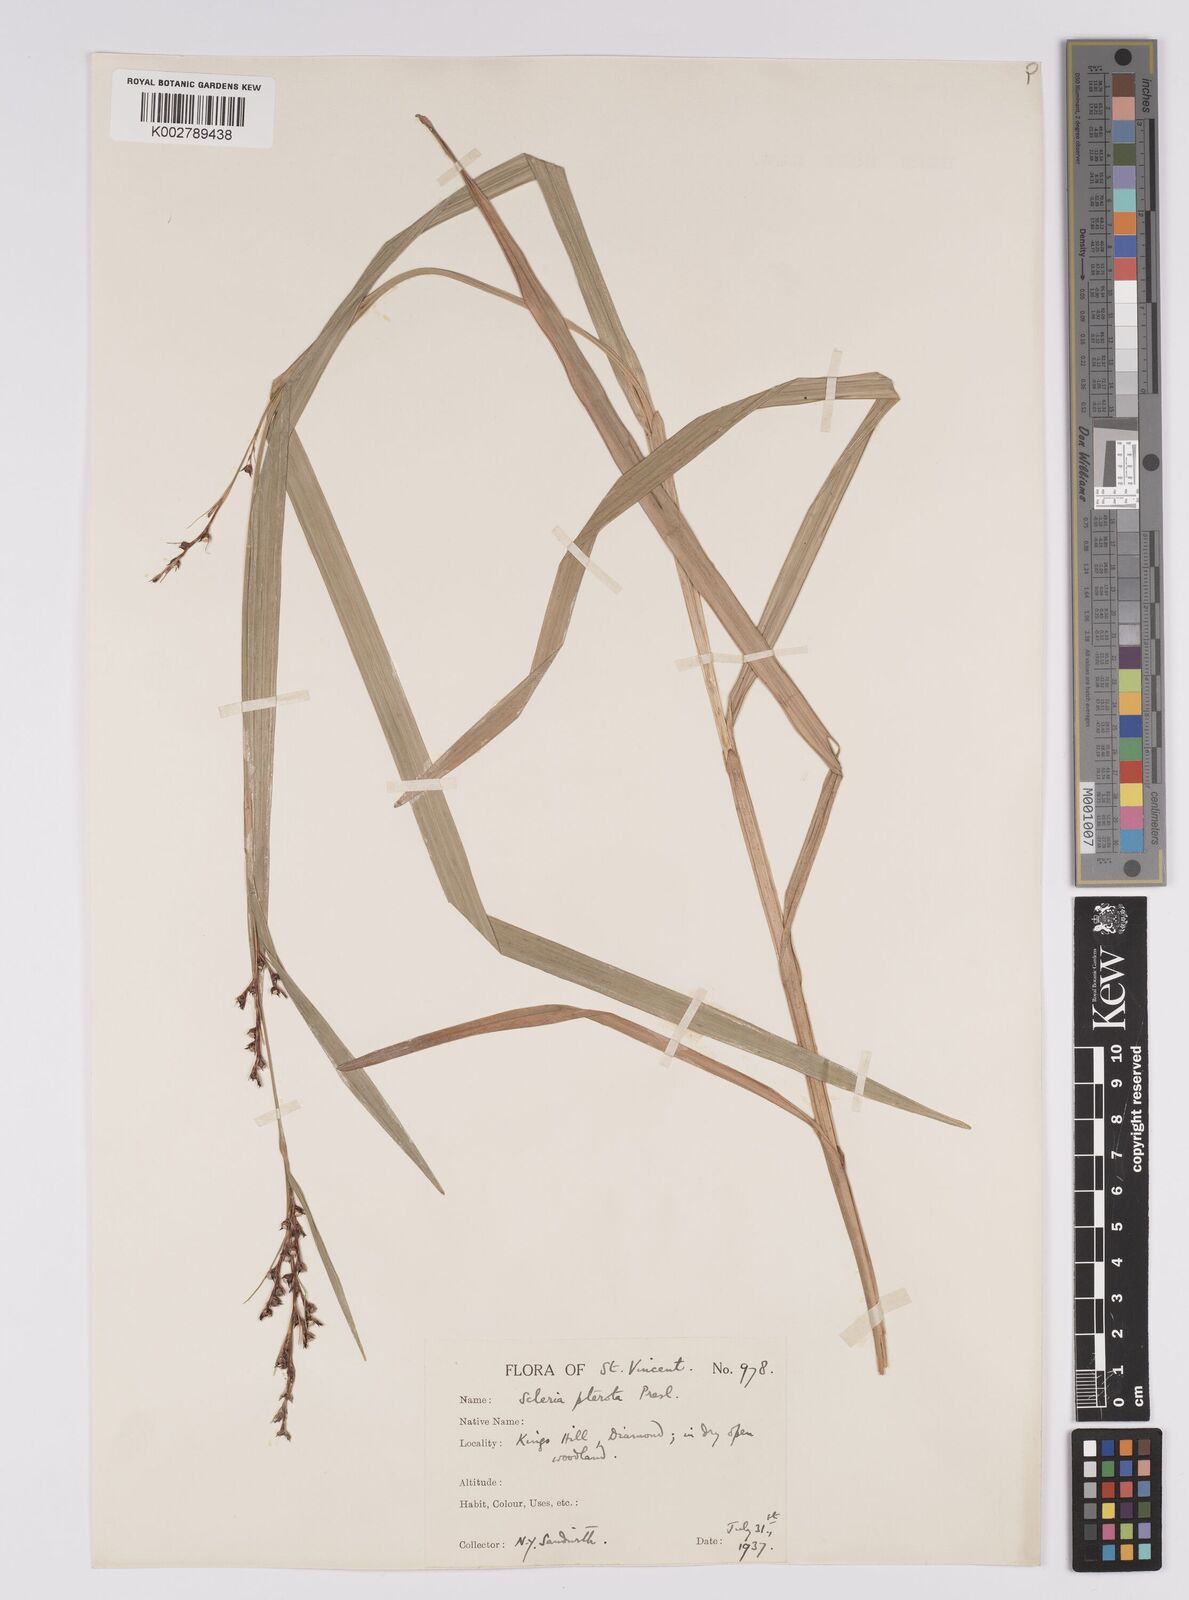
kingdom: Plantae
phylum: Tracheophyta
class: Liliopsida
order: Poales
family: Cyperaceae
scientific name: Cyperaceae
